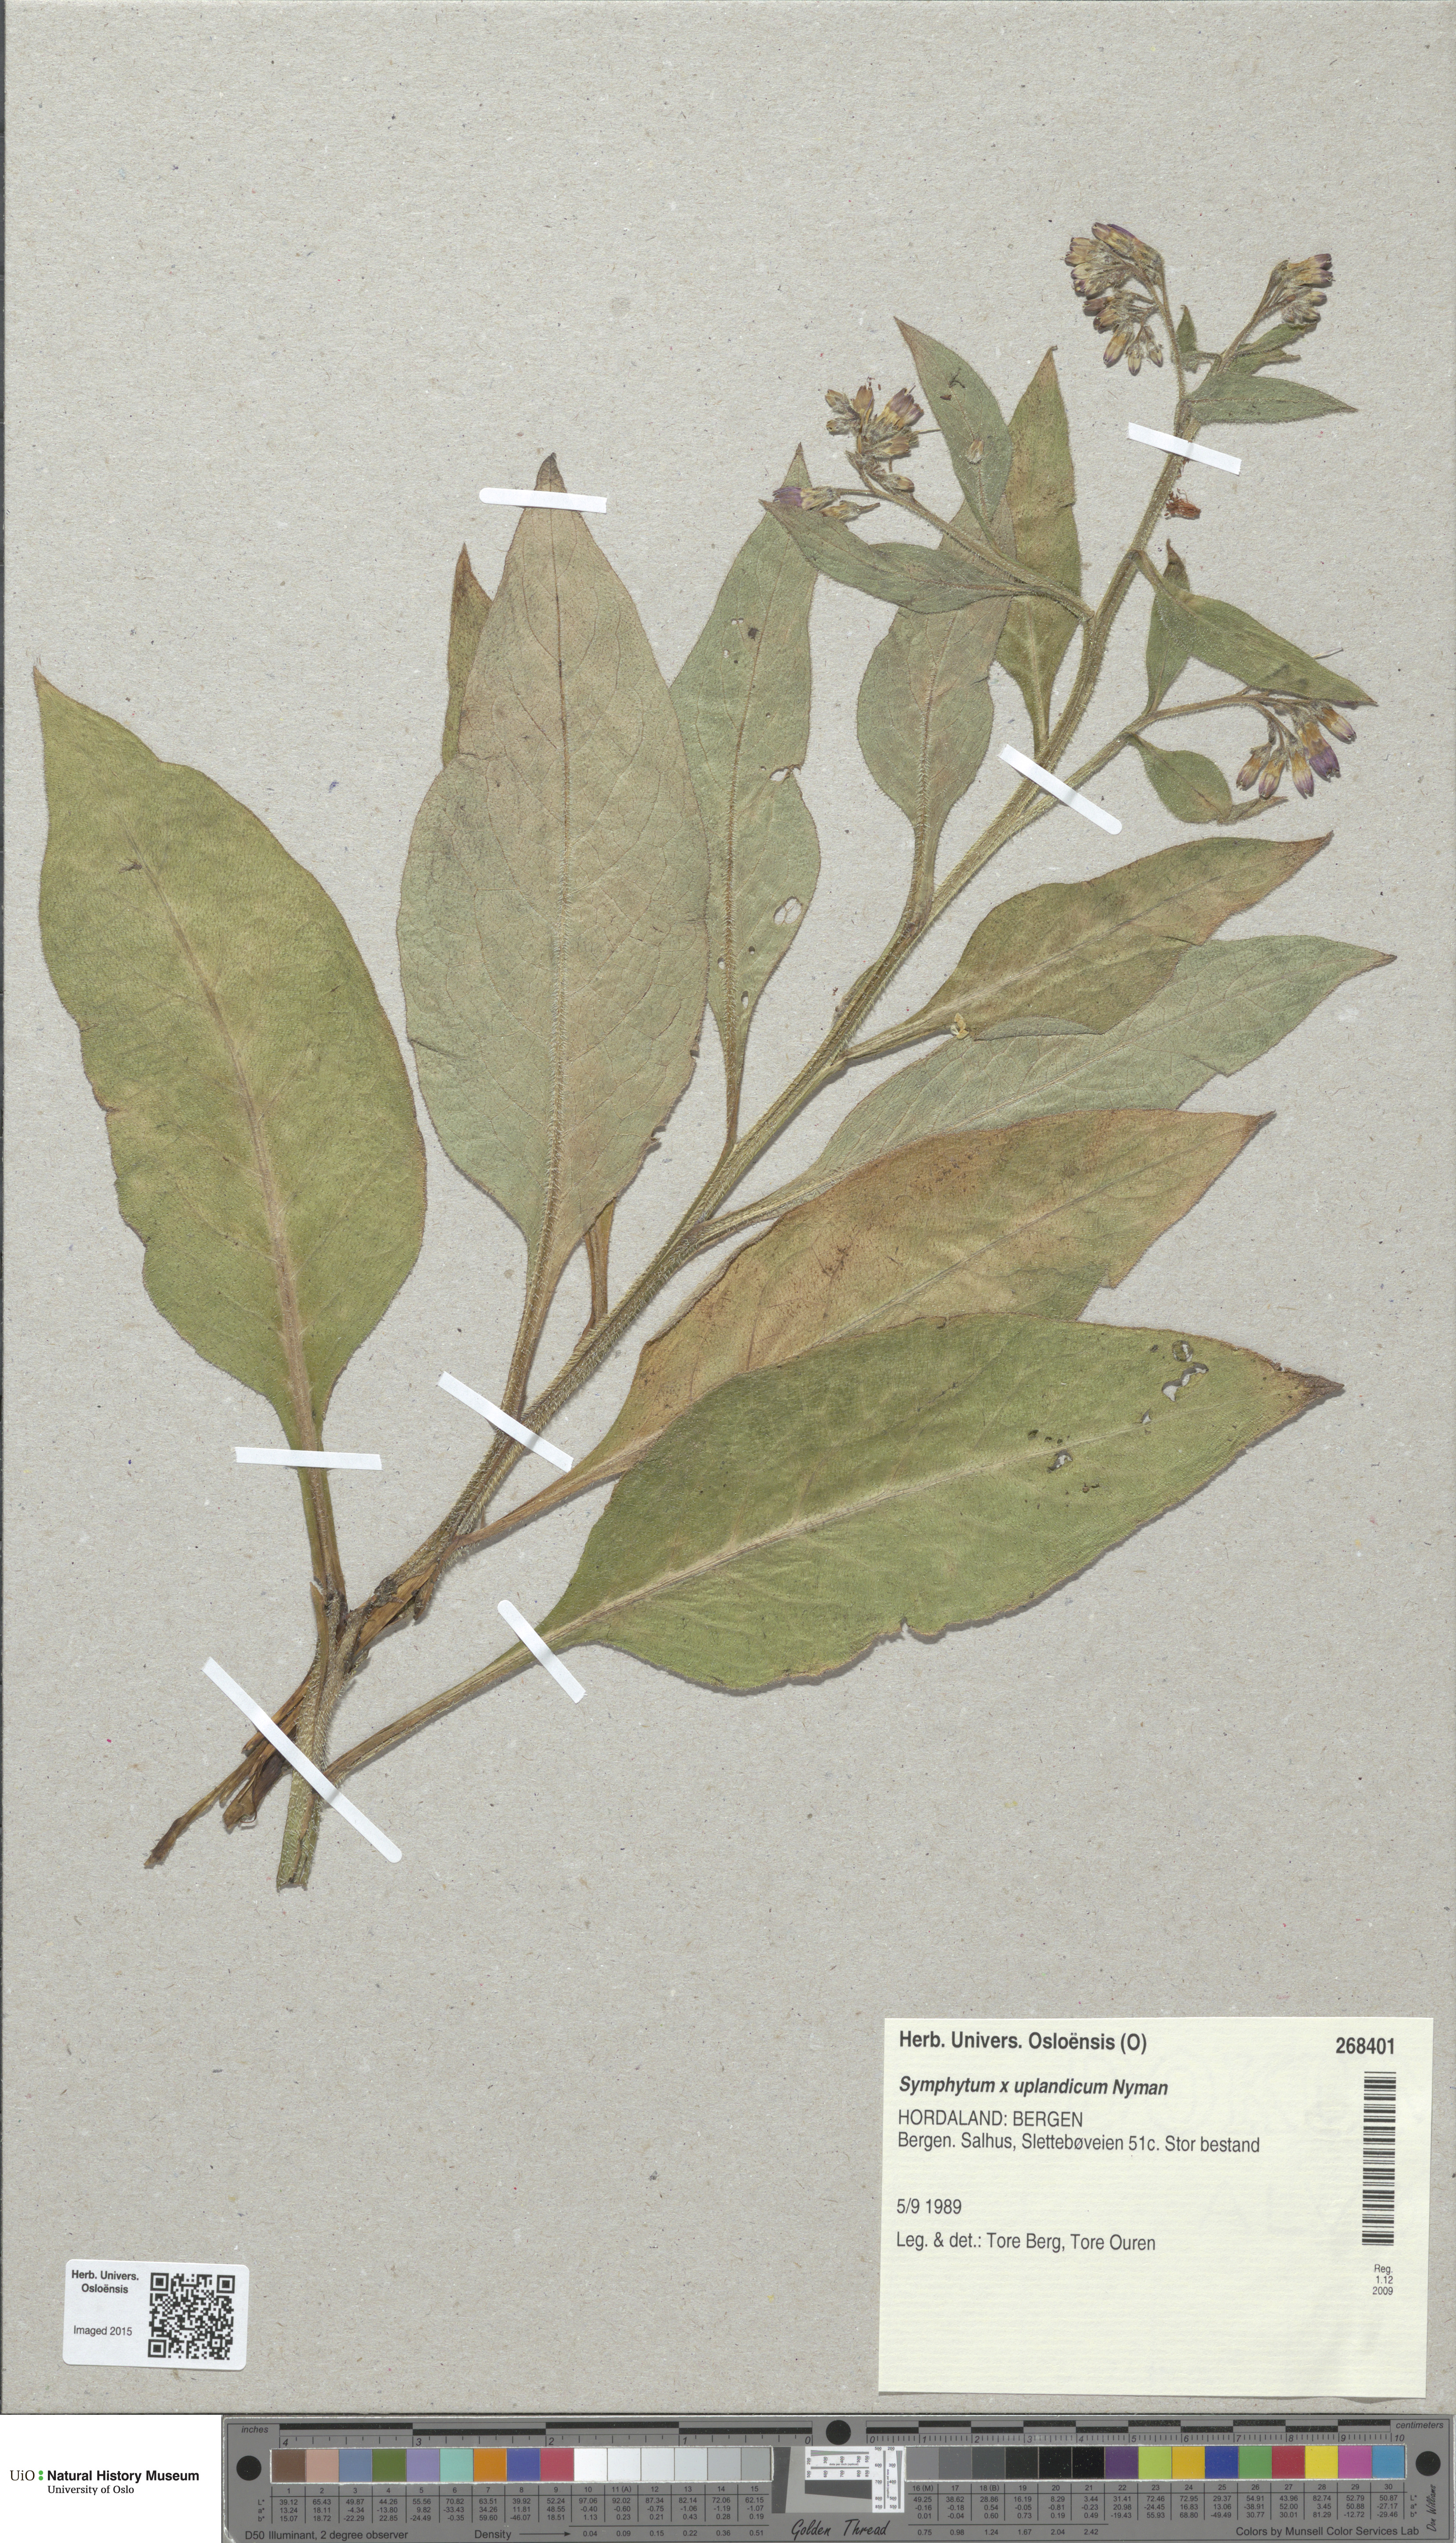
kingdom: Plantae
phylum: Tracheophyta
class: Magnoliopsida
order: Boraginales
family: Boraginaceae
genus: Symphytum
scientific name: Symphytum uplandicum
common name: Russian comfrey
